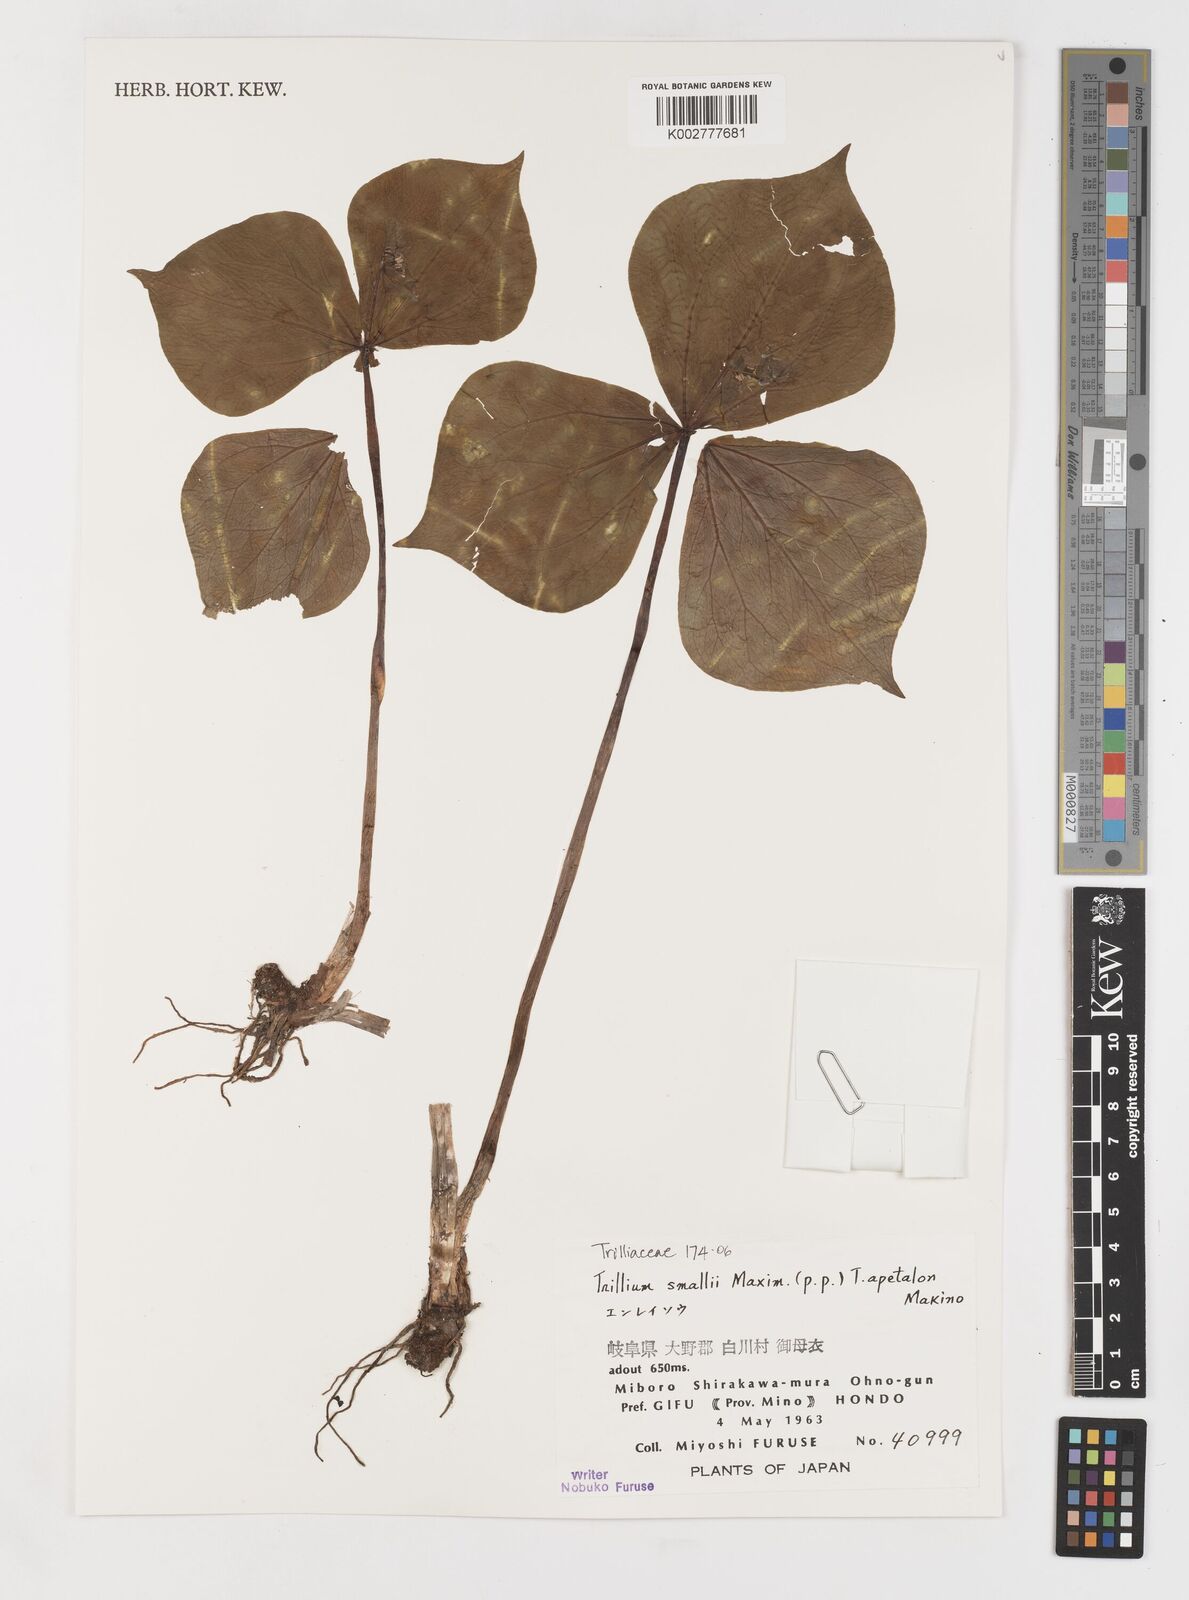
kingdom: Plantae
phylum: Tracheophyta
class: Liliopsida
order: Liliales
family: Melanthiaceae
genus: Trillium
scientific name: Trillium smallii
